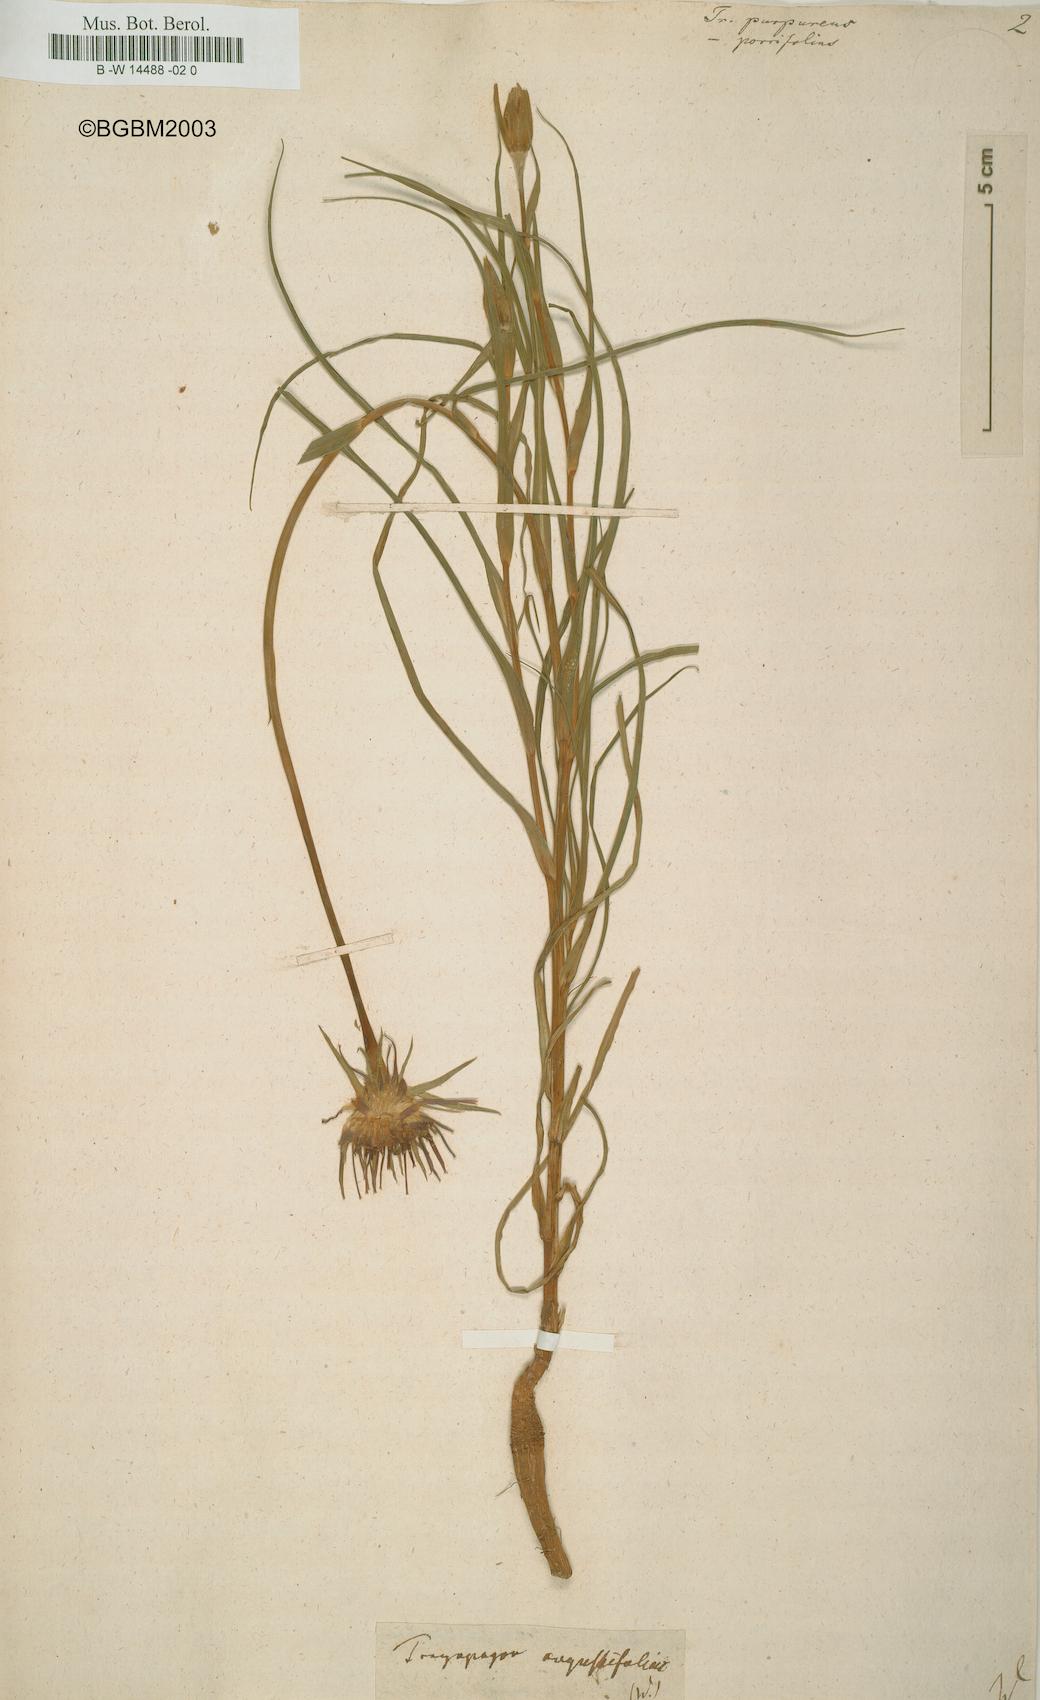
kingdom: Plantae
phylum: Tracheophyta
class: Magnoliopsida
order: Asterales
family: Asteraceae
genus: Tragopogon
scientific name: Tragopogon
